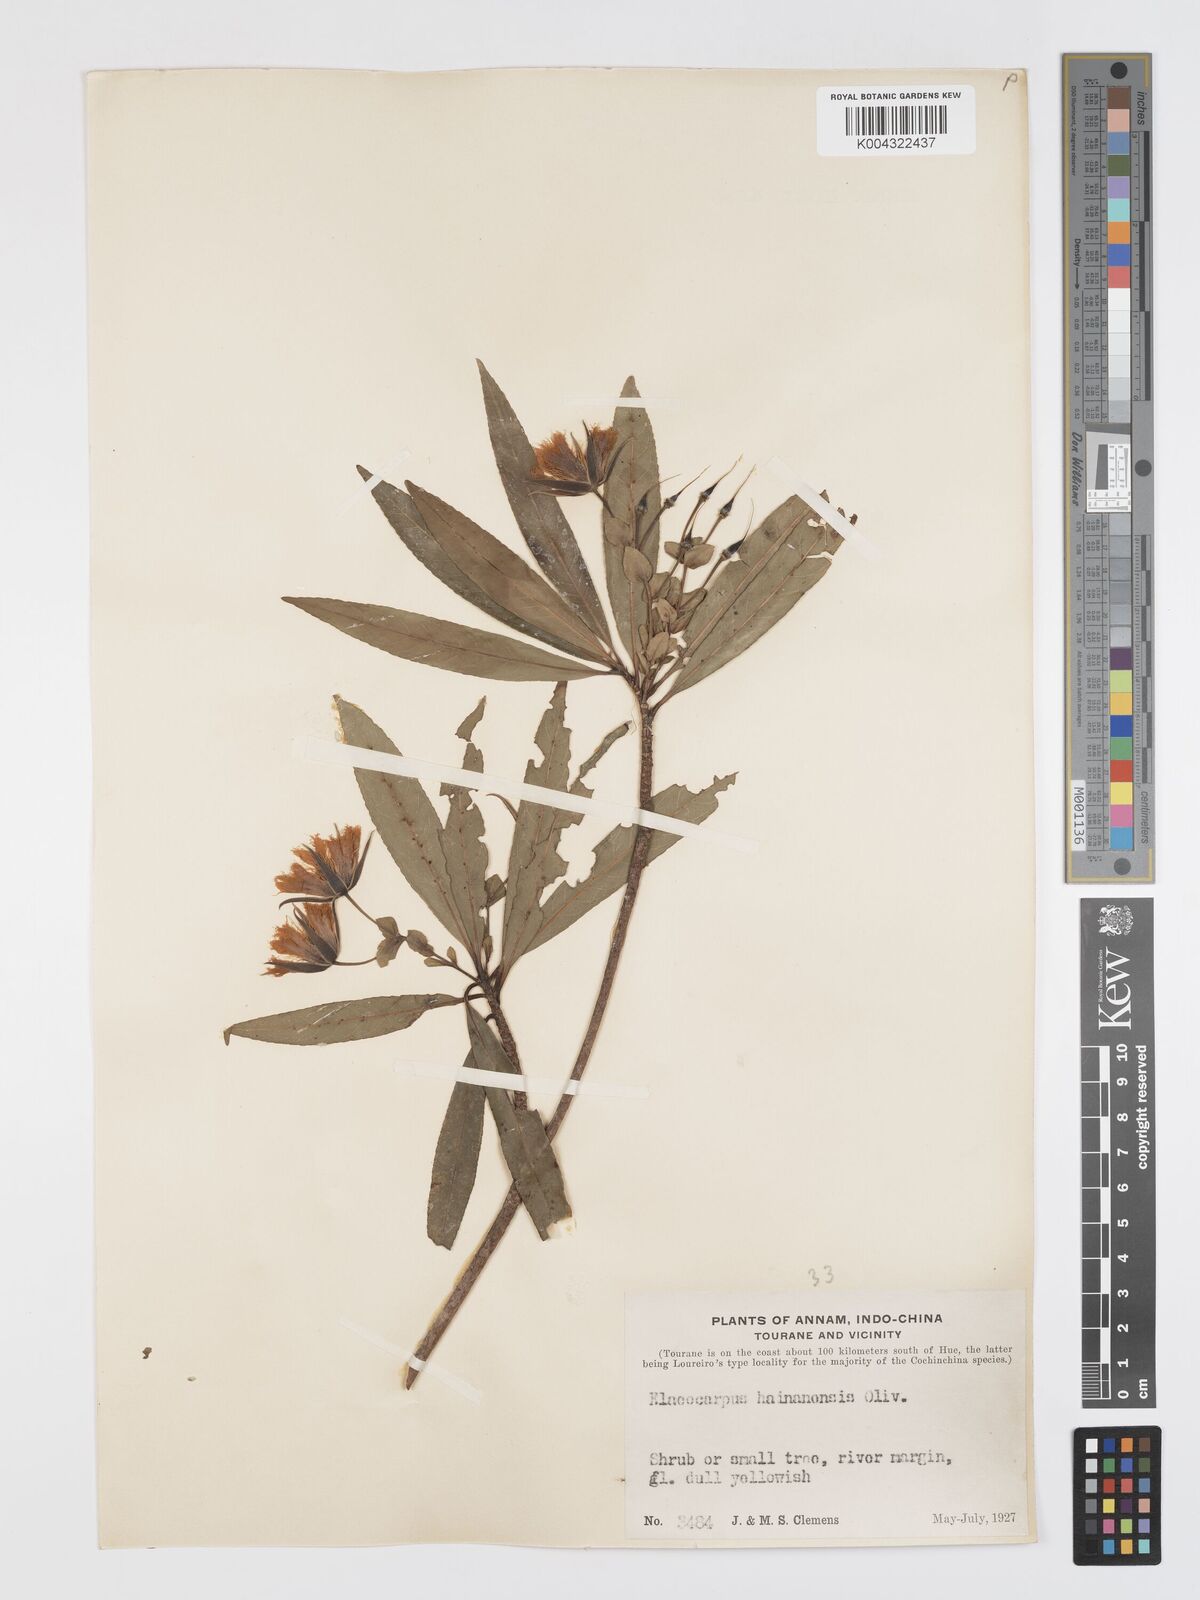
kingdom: Plantae
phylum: Tracheophyta
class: Magnoliopsida
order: Oxalidales
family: Elaeocarpaceae
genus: Elaeocarpus
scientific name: Elaeocarpus hainanensis
